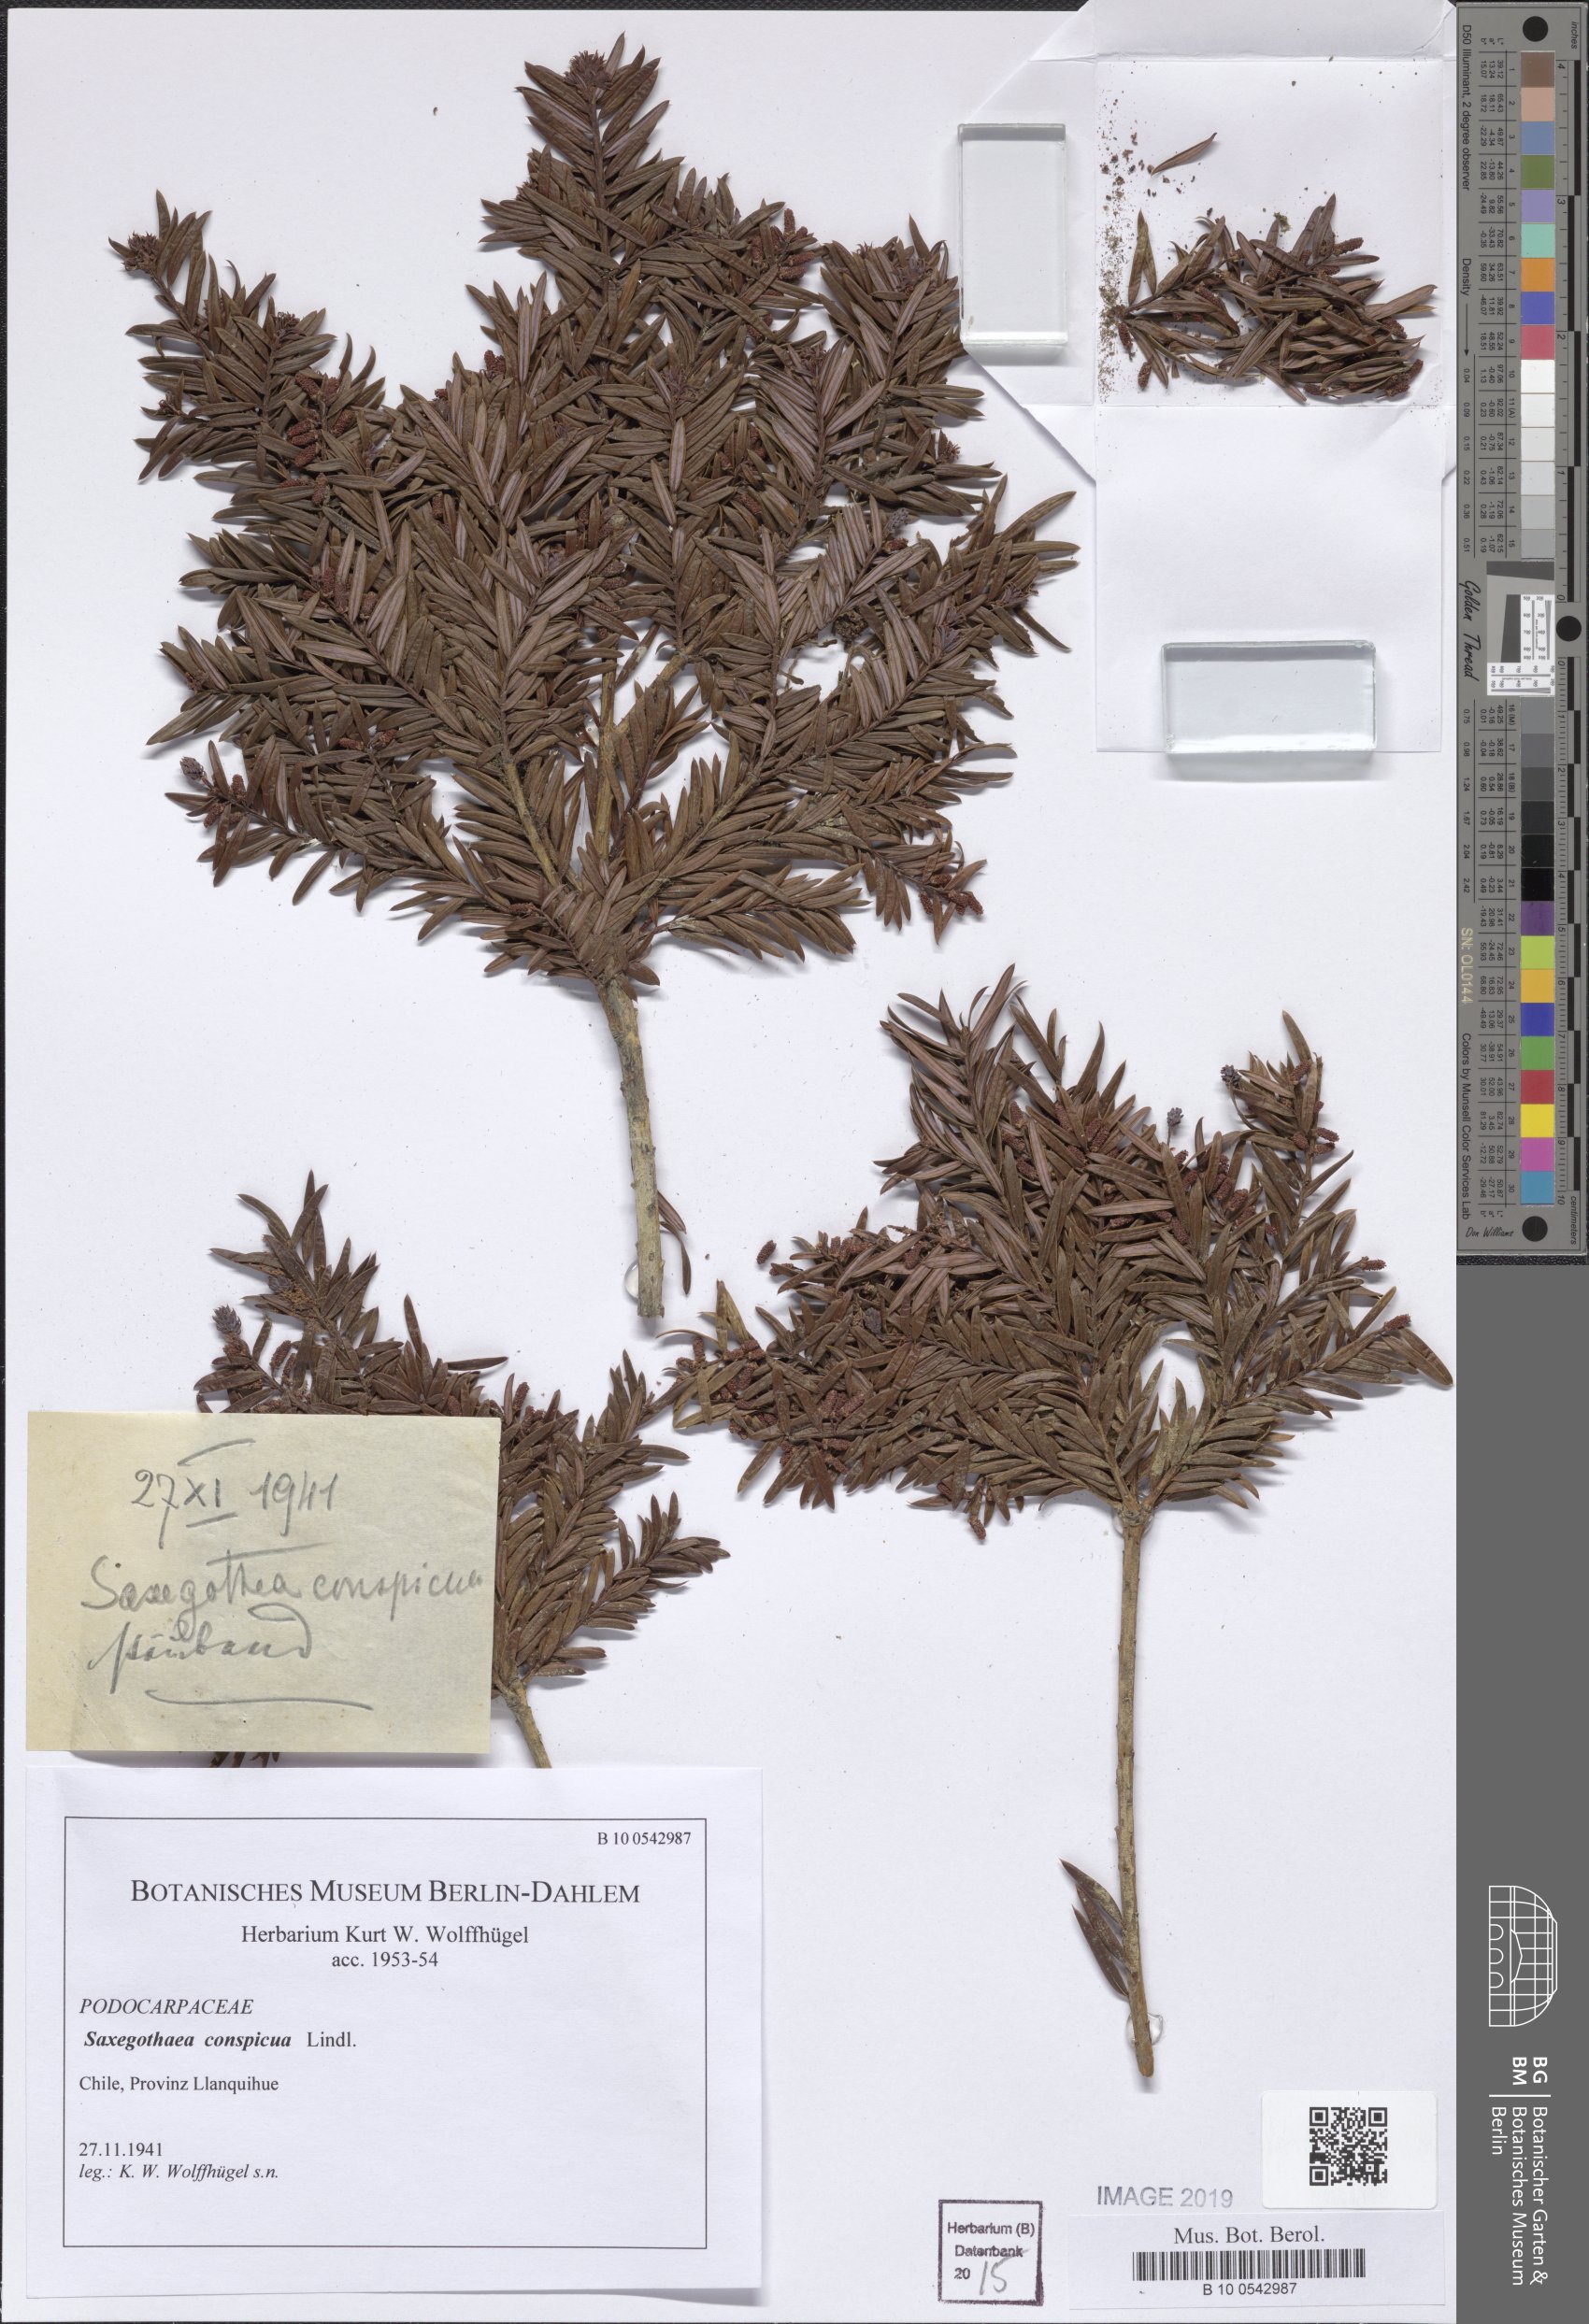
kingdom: Plantae
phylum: Tracheophyta
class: Pinopsida
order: Pinales
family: Podocarpaceae
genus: Saxegothaea
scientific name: Saxegothaea conspicua
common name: Prince albert's yew
